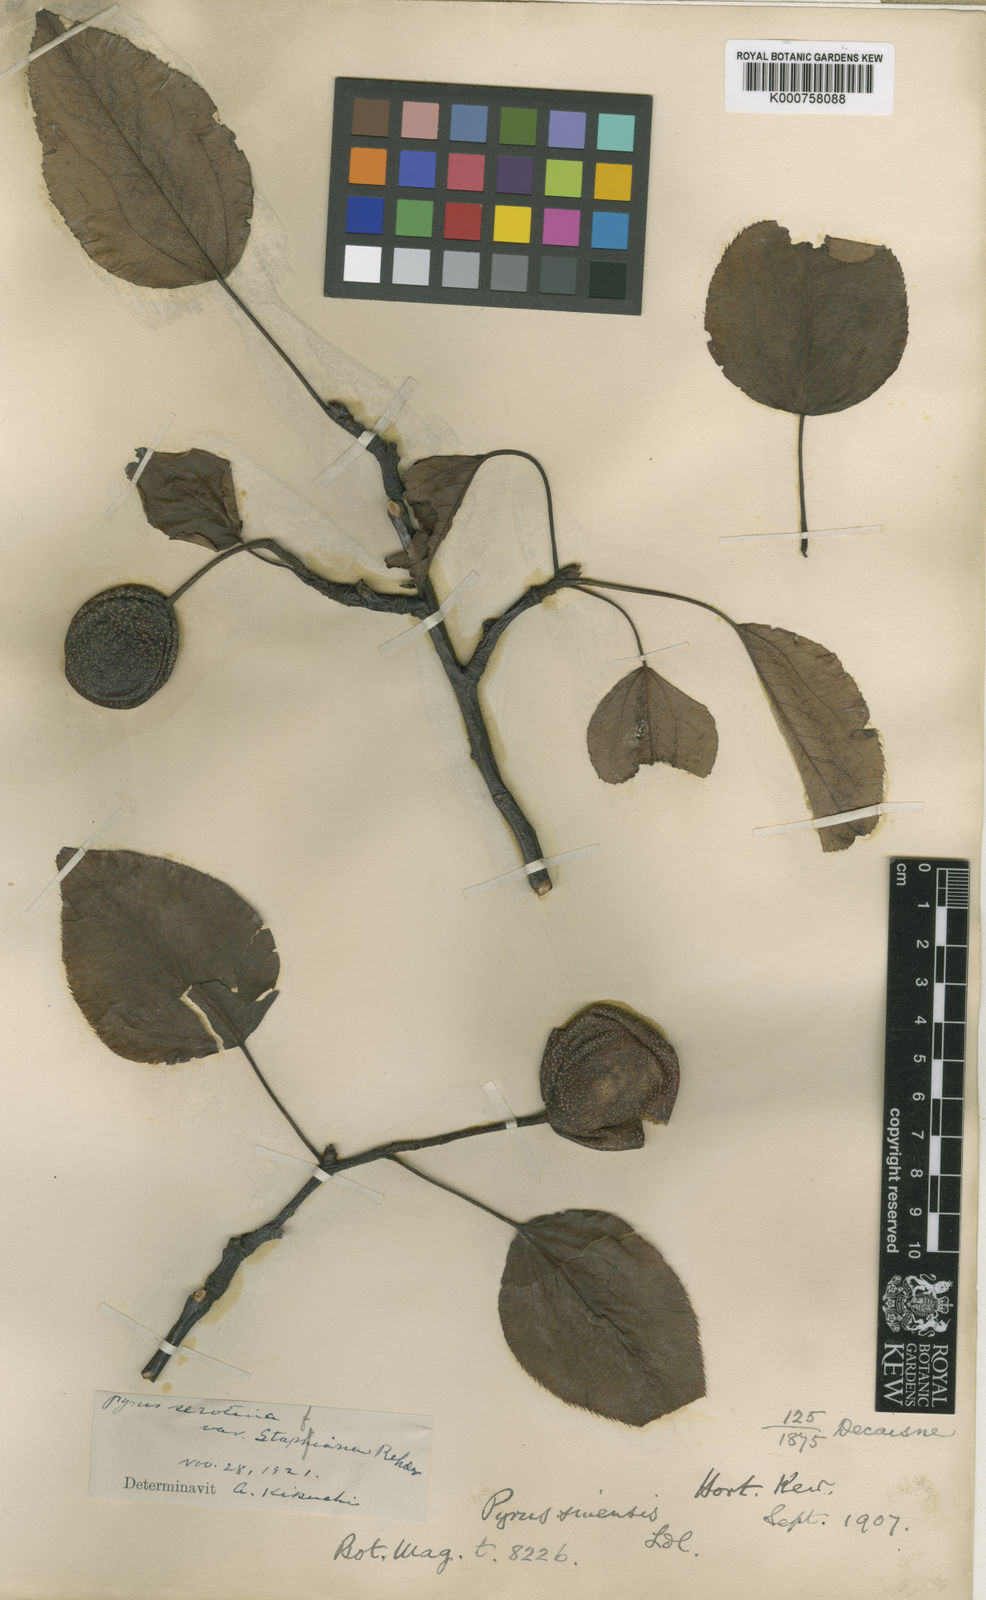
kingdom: Plantae
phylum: Tracheophyta
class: Magnoliopsida
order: Rosales
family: Rosaceae
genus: Pyrus
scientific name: Pyrus pyrifolia
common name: Chinese pear
